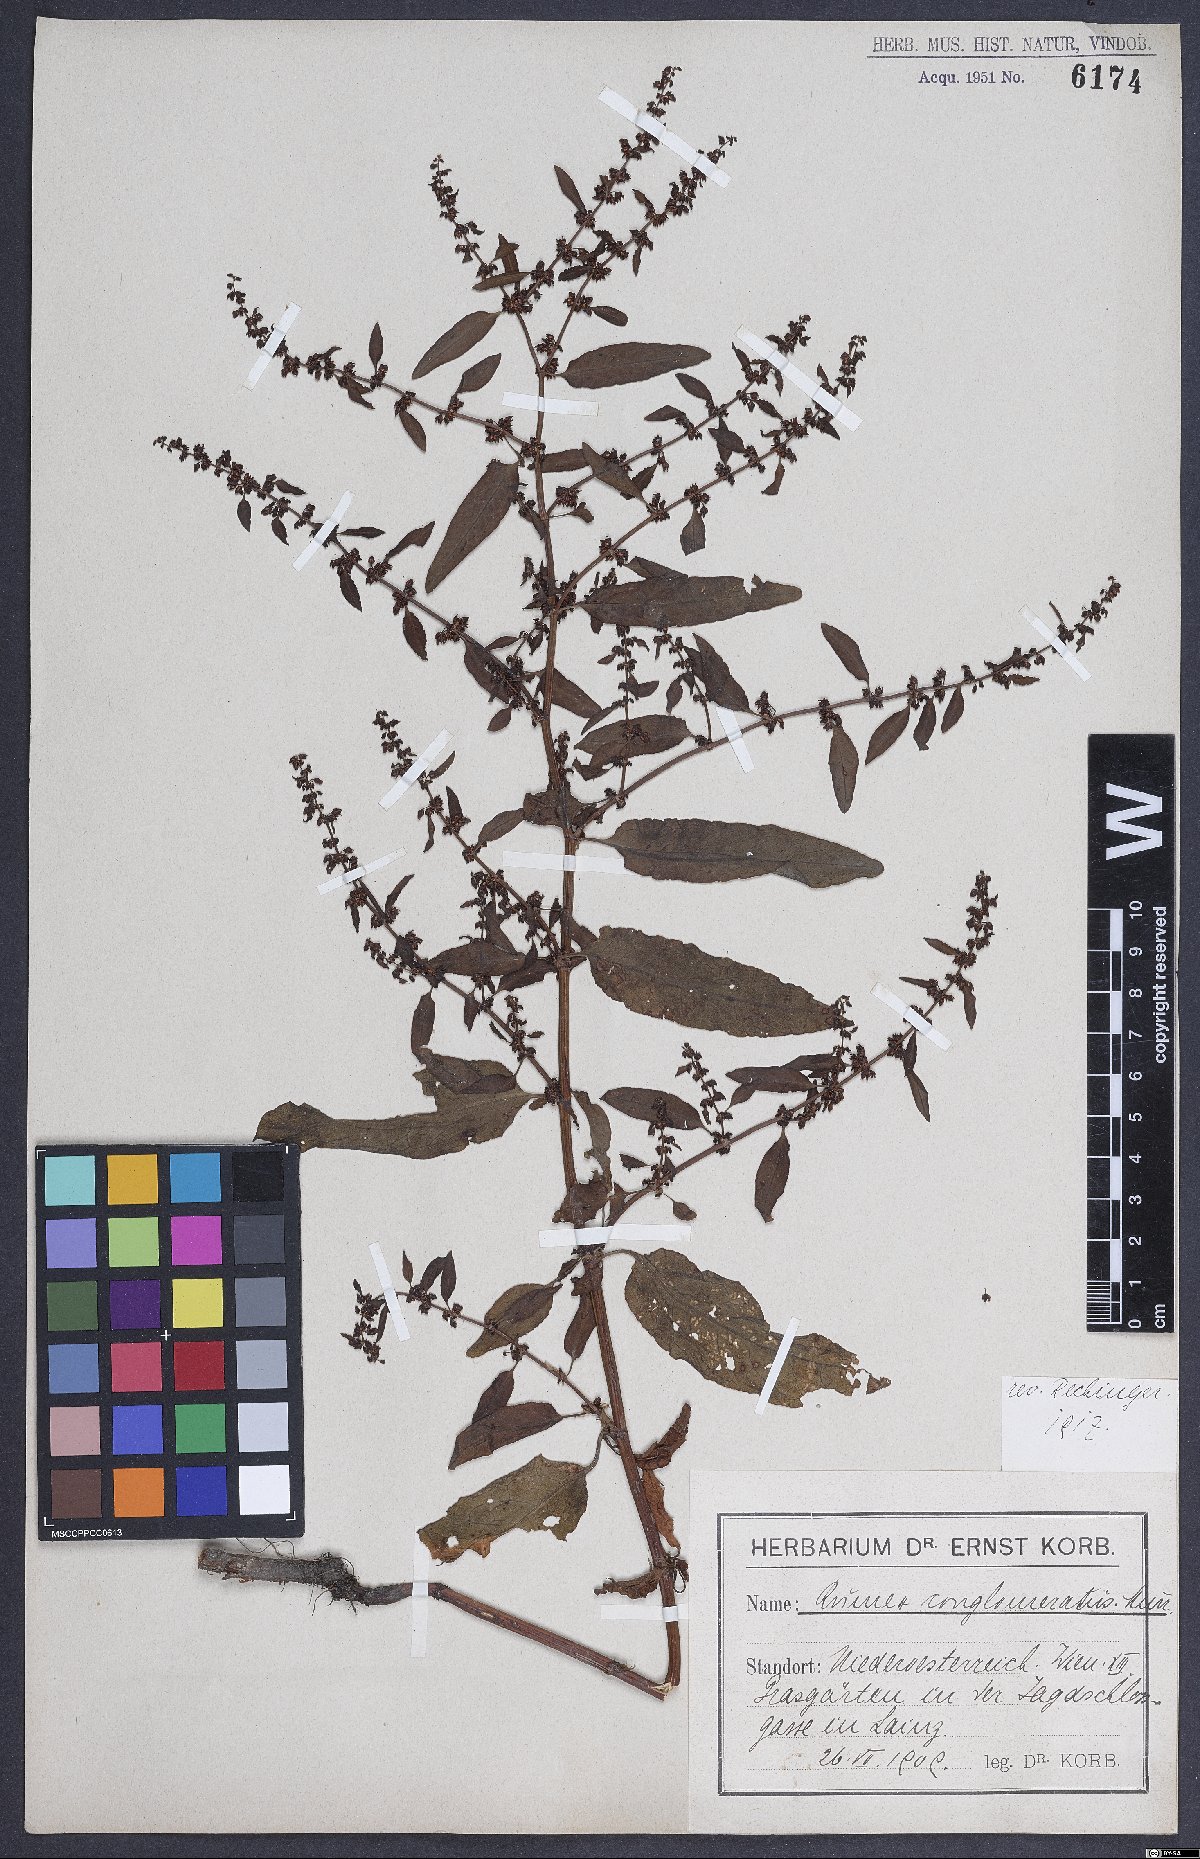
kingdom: Plantae
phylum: Tracheophyta
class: Magnoliopsida
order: Caryophyllales
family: Polygonaceae
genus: Rumex
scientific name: Rumex conglomeratus
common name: Clustered dock
